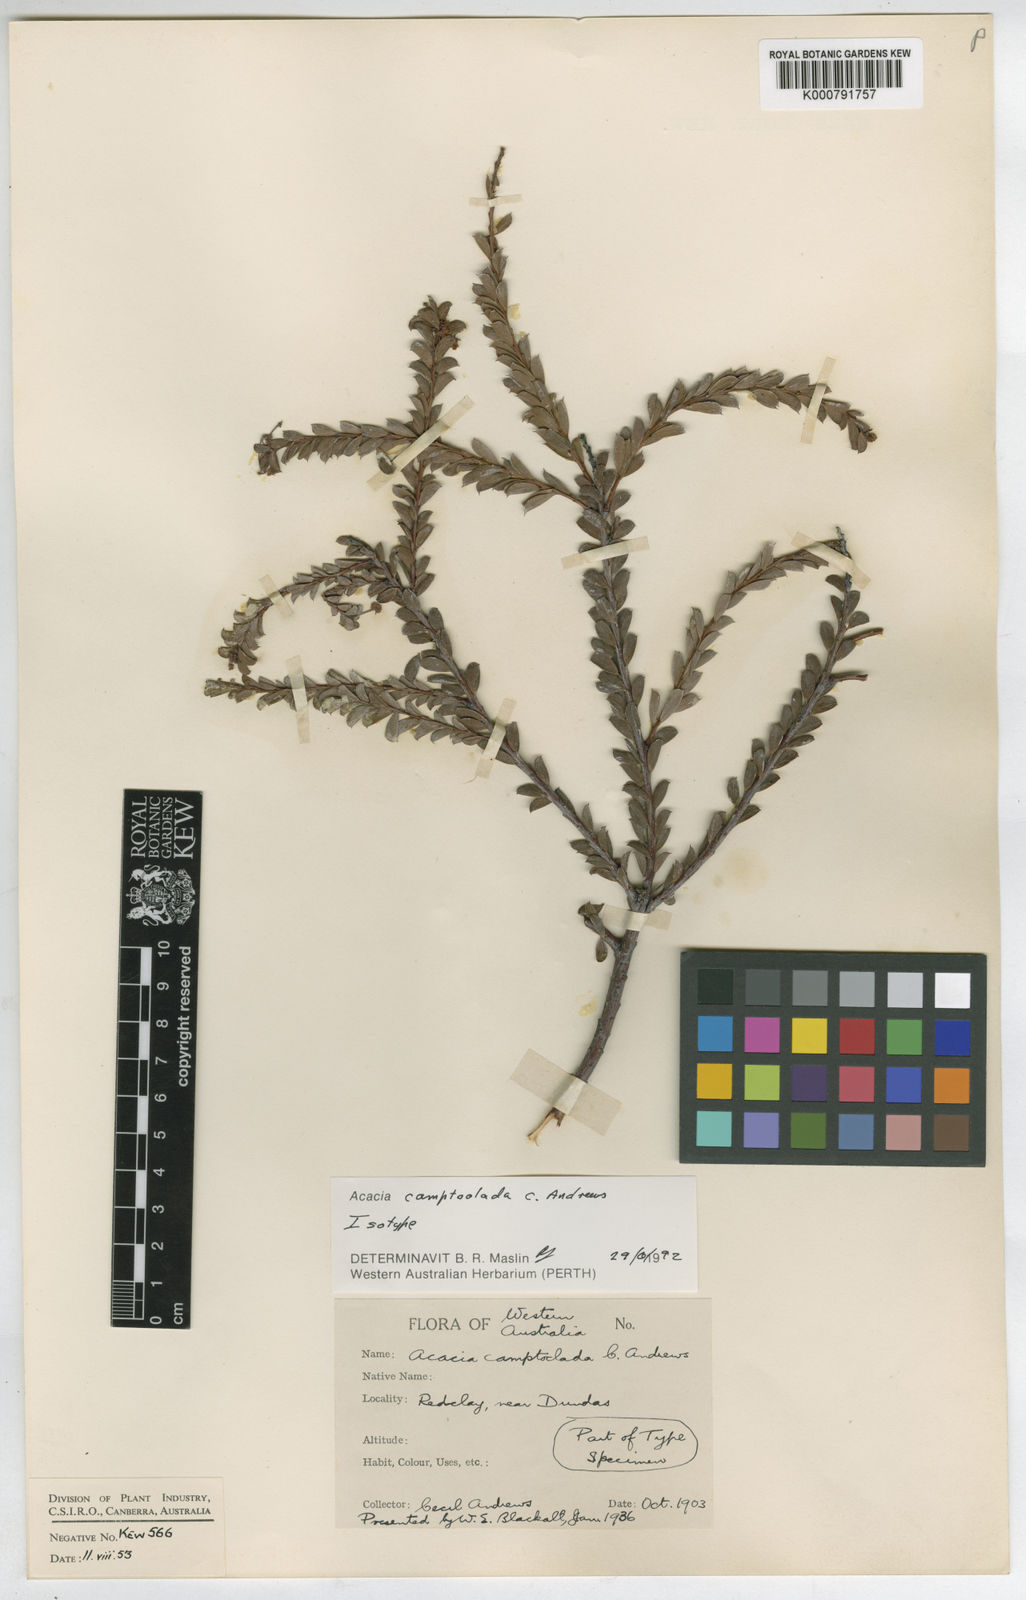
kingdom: Plantae
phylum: Tracheophyta
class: Magnoliopsida
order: Fabales
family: Fabaceae
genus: Acacia
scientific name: Acacia camptoclada
